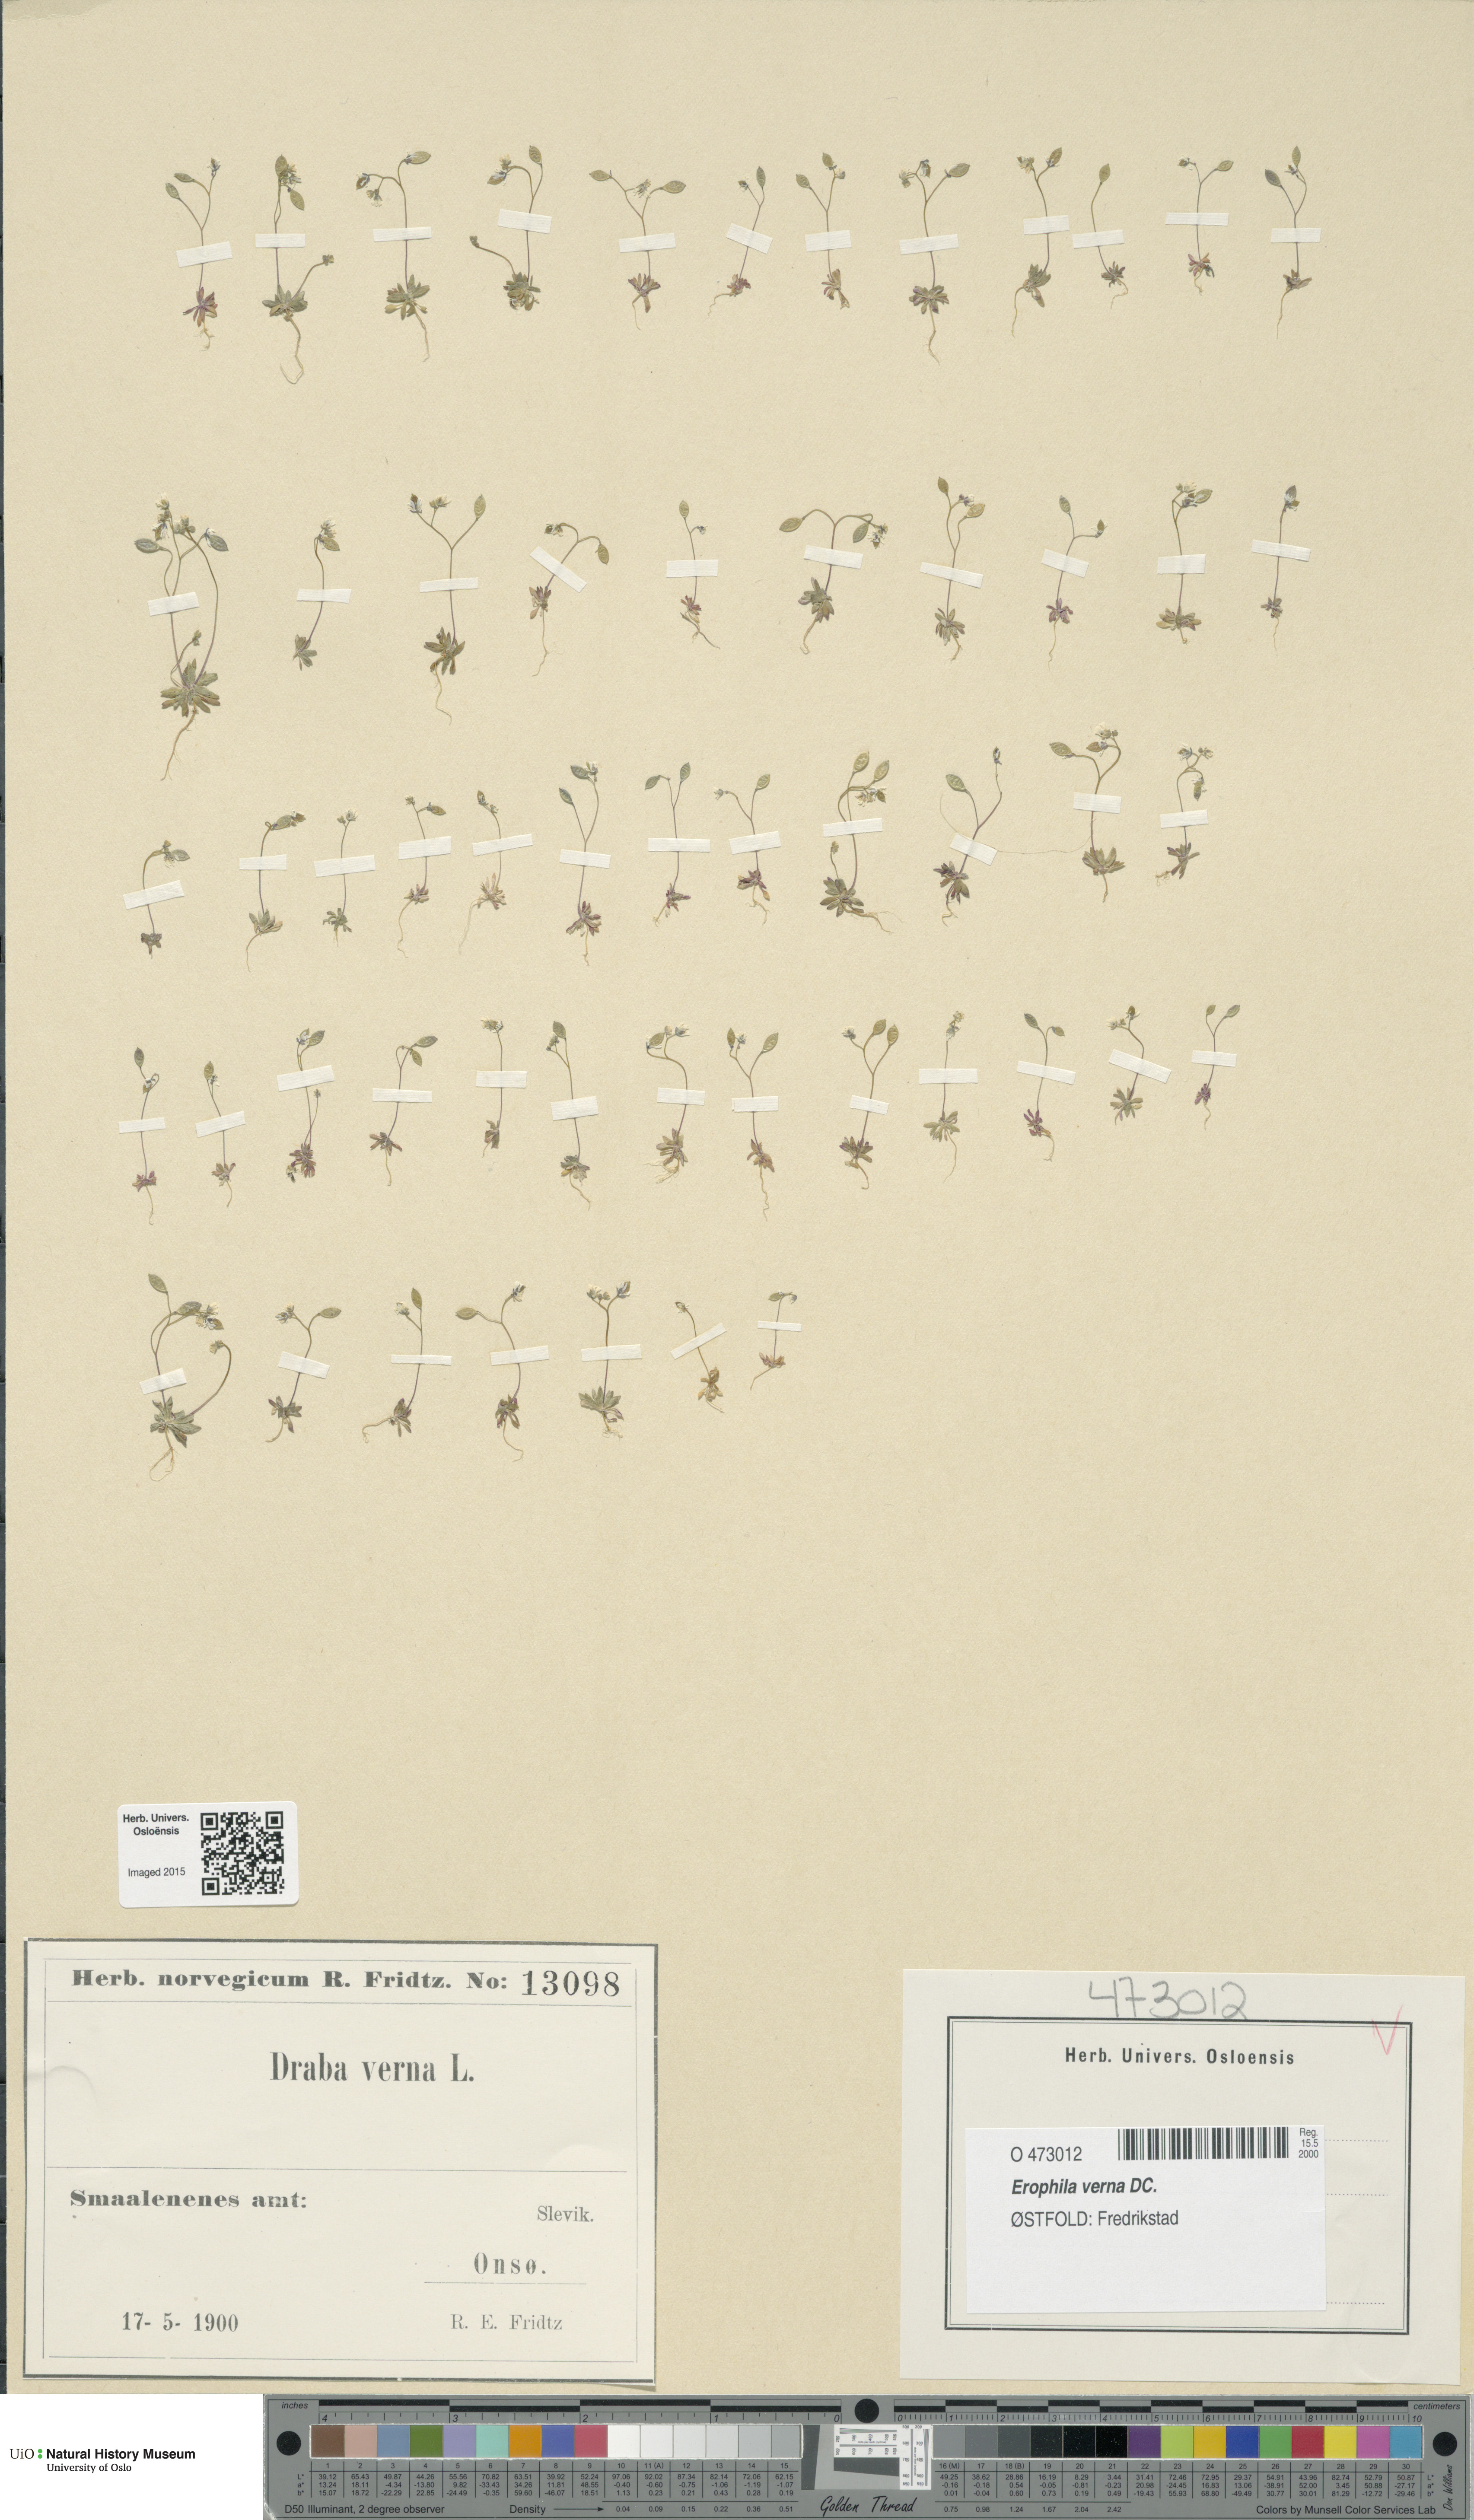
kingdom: Plantae
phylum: Tracheophyta
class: Magnoliopsida
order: Brassicales
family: Brassicaceae
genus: Draba
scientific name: Draba verna
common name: Spring draba
